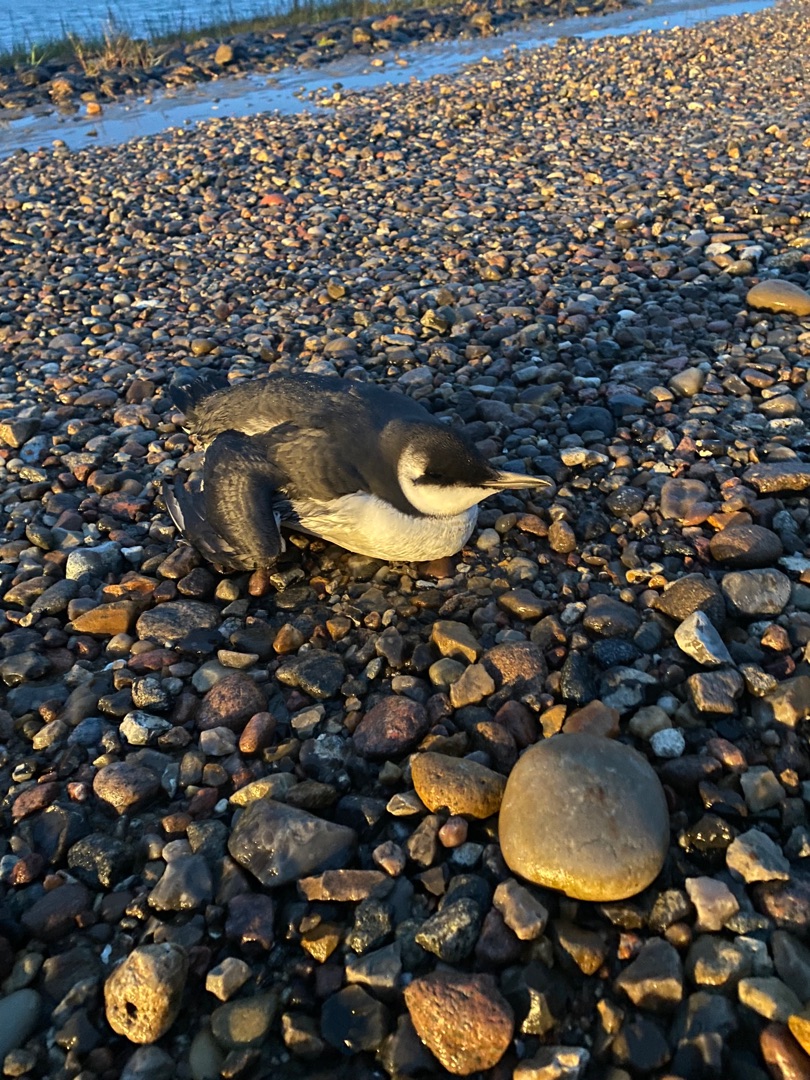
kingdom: Animalia
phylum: Chordata
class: Aves
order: Charadriiformes
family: Alcidae
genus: Uria
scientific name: Uria aalge
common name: Lomvie
